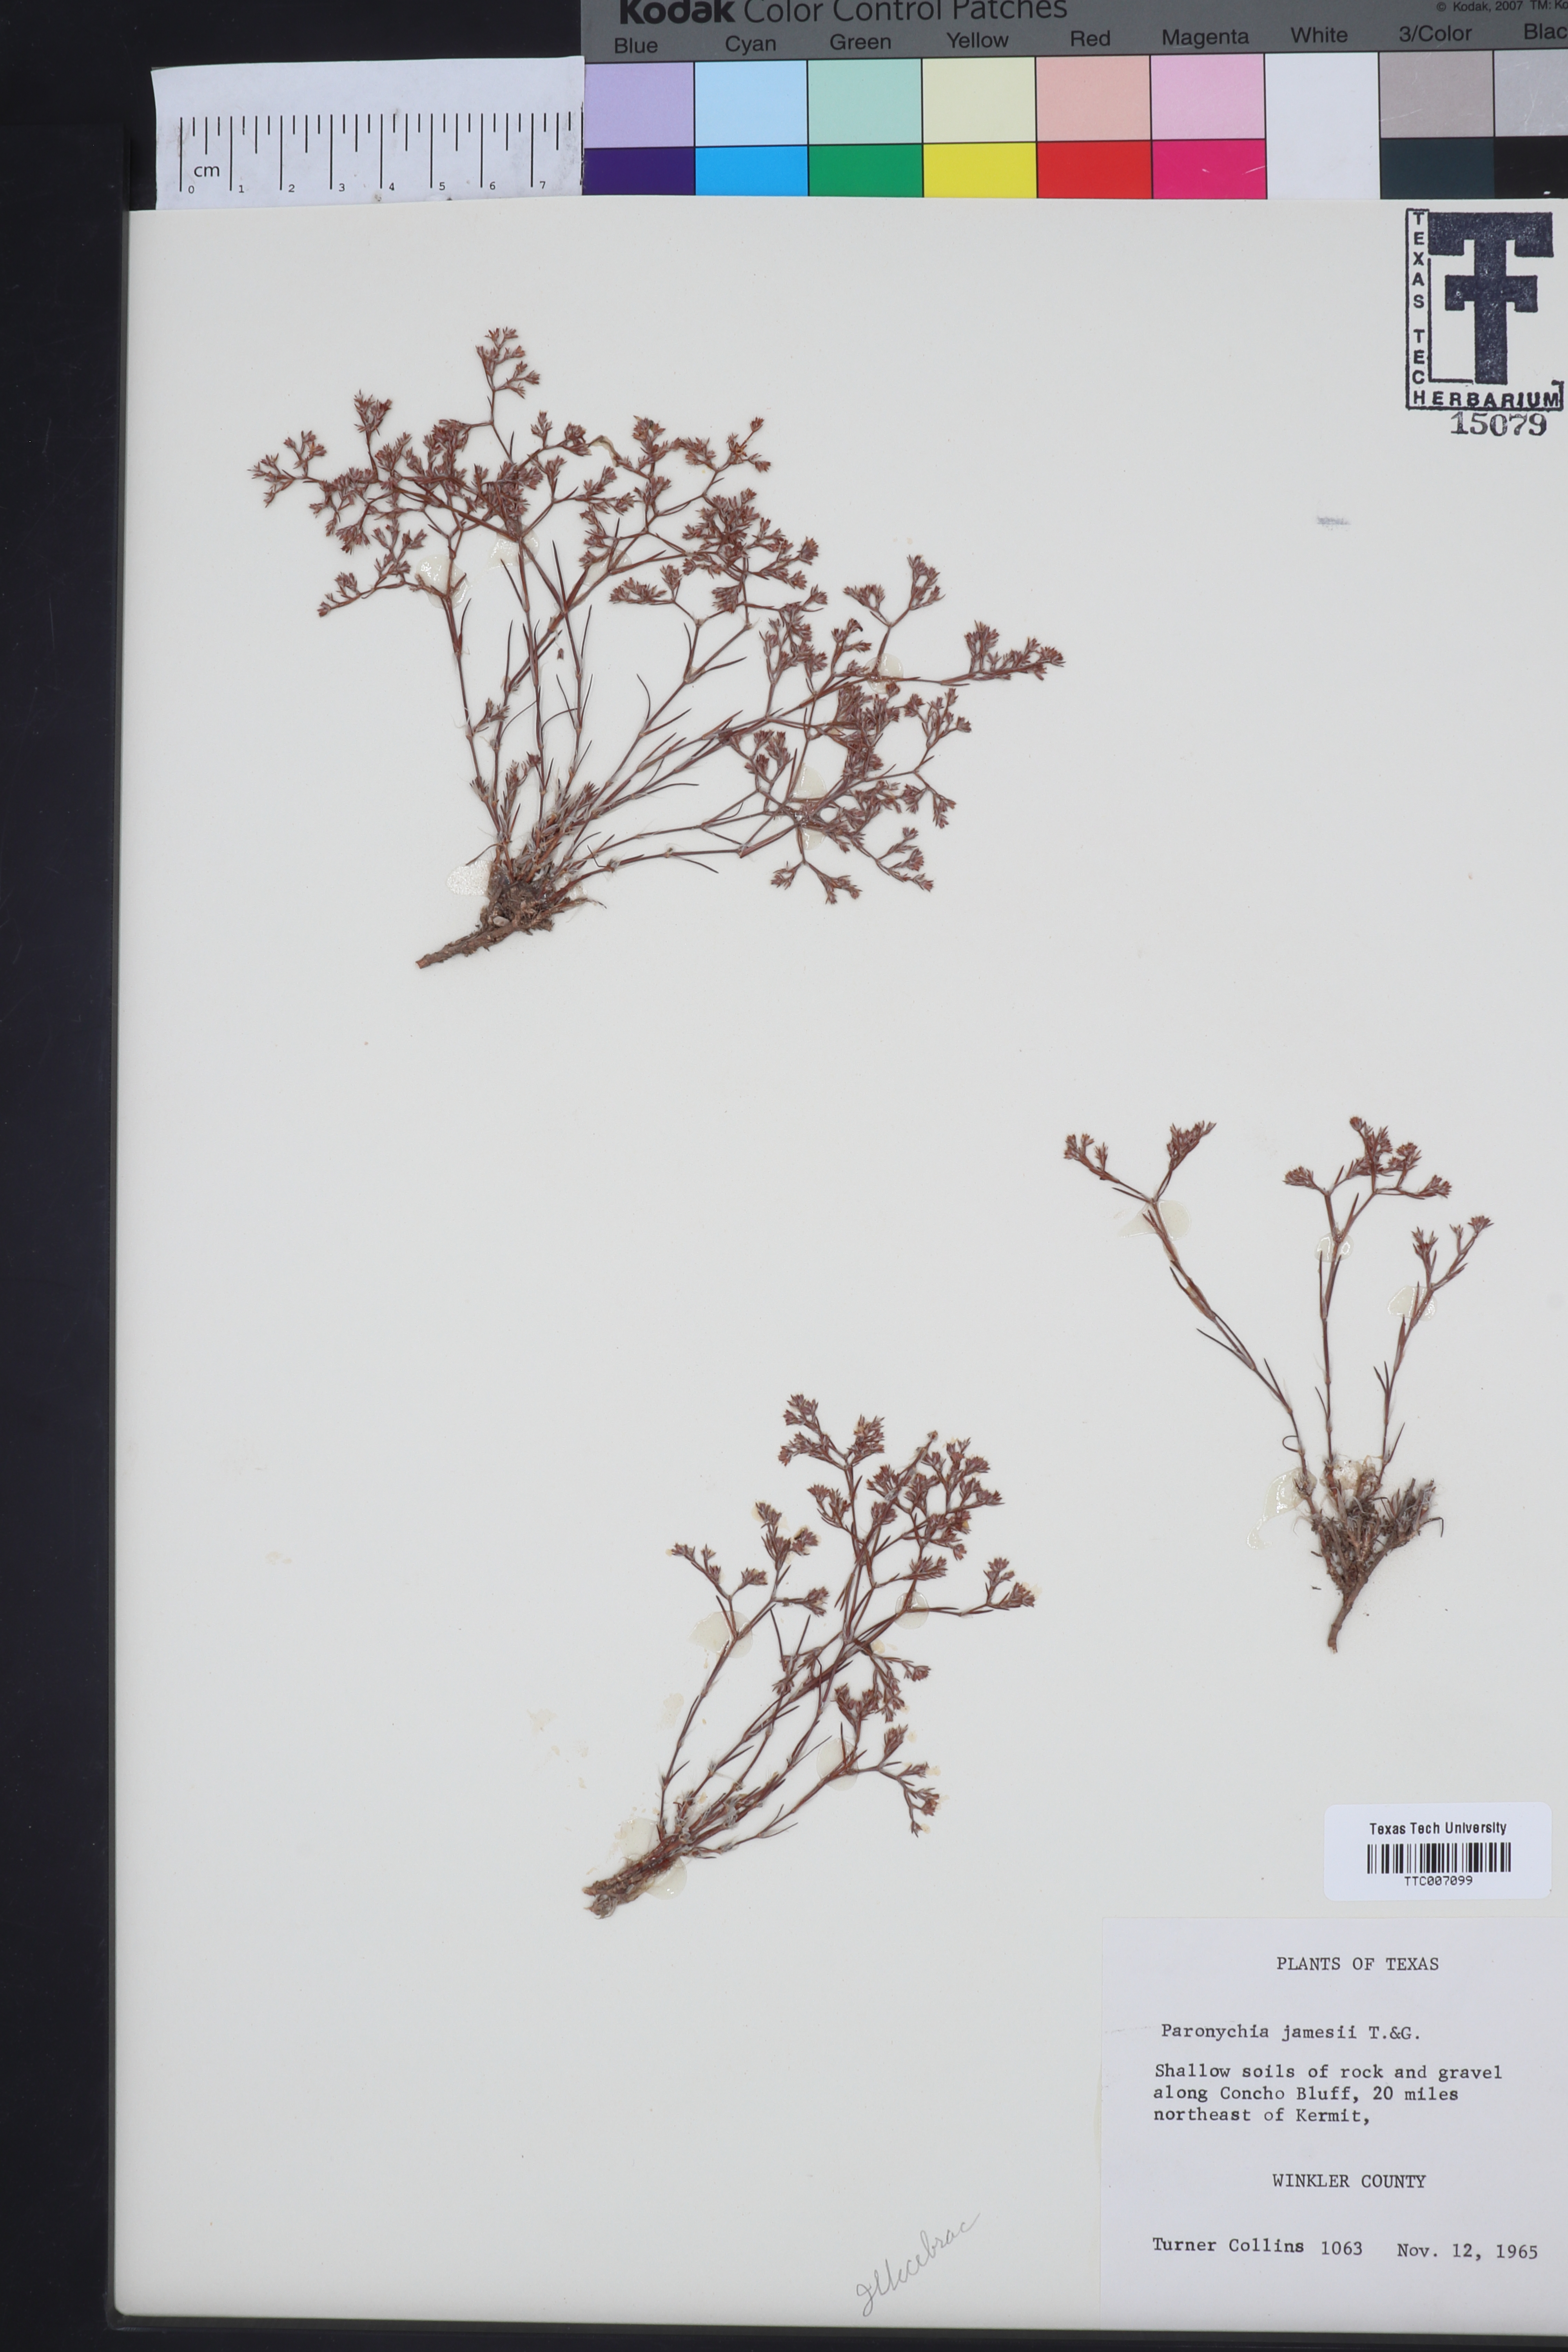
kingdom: Plantae
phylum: Tracheophyta
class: Magnoliopsida
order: Caryophyllales
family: Caryophyllaceae
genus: Paronychia
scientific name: Paronychia jamesii
